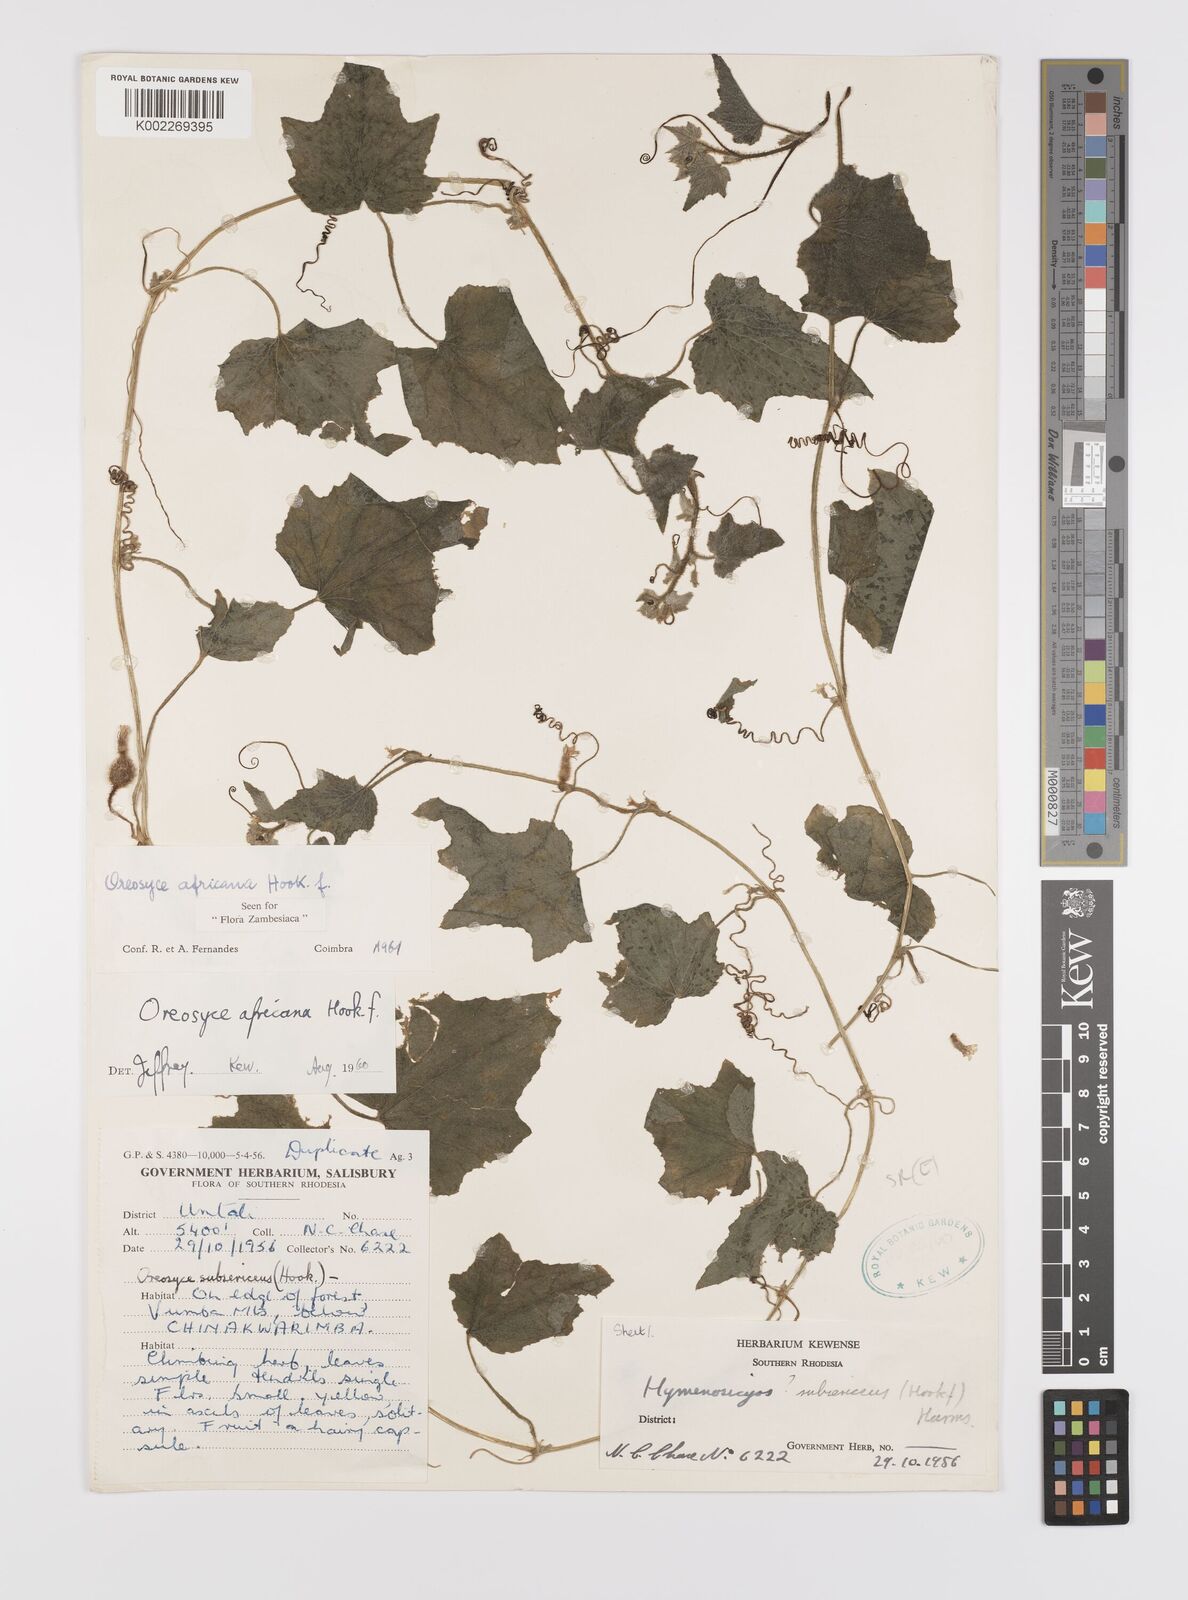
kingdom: Plantae
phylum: Tracheophyta
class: Magnoliopsida
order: Cucurbitales
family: Cucurbitaceae
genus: Cucumis
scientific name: Cucumis oreosyce
